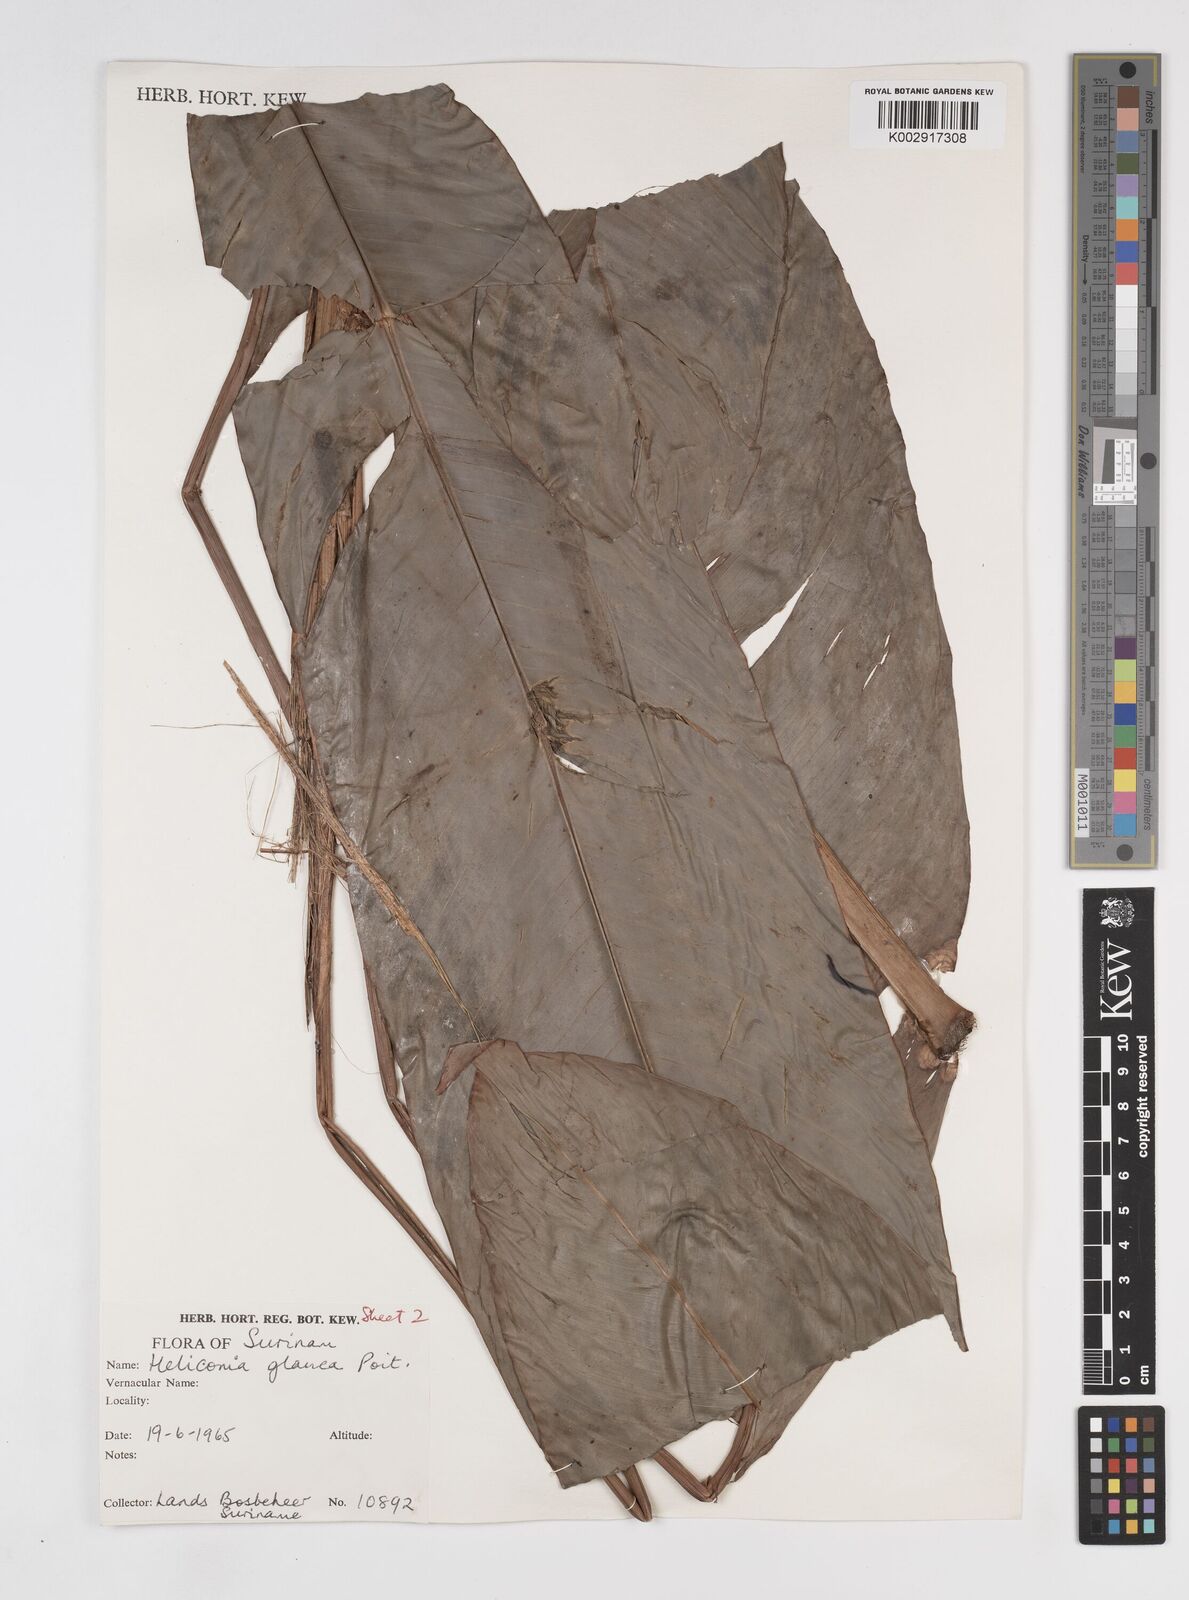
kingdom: Plantae
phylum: Tracheophyta
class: Liliopsida
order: Zingiberales
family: Heliconiaceae
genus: Heliconia
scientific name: Heliconia richardiana
